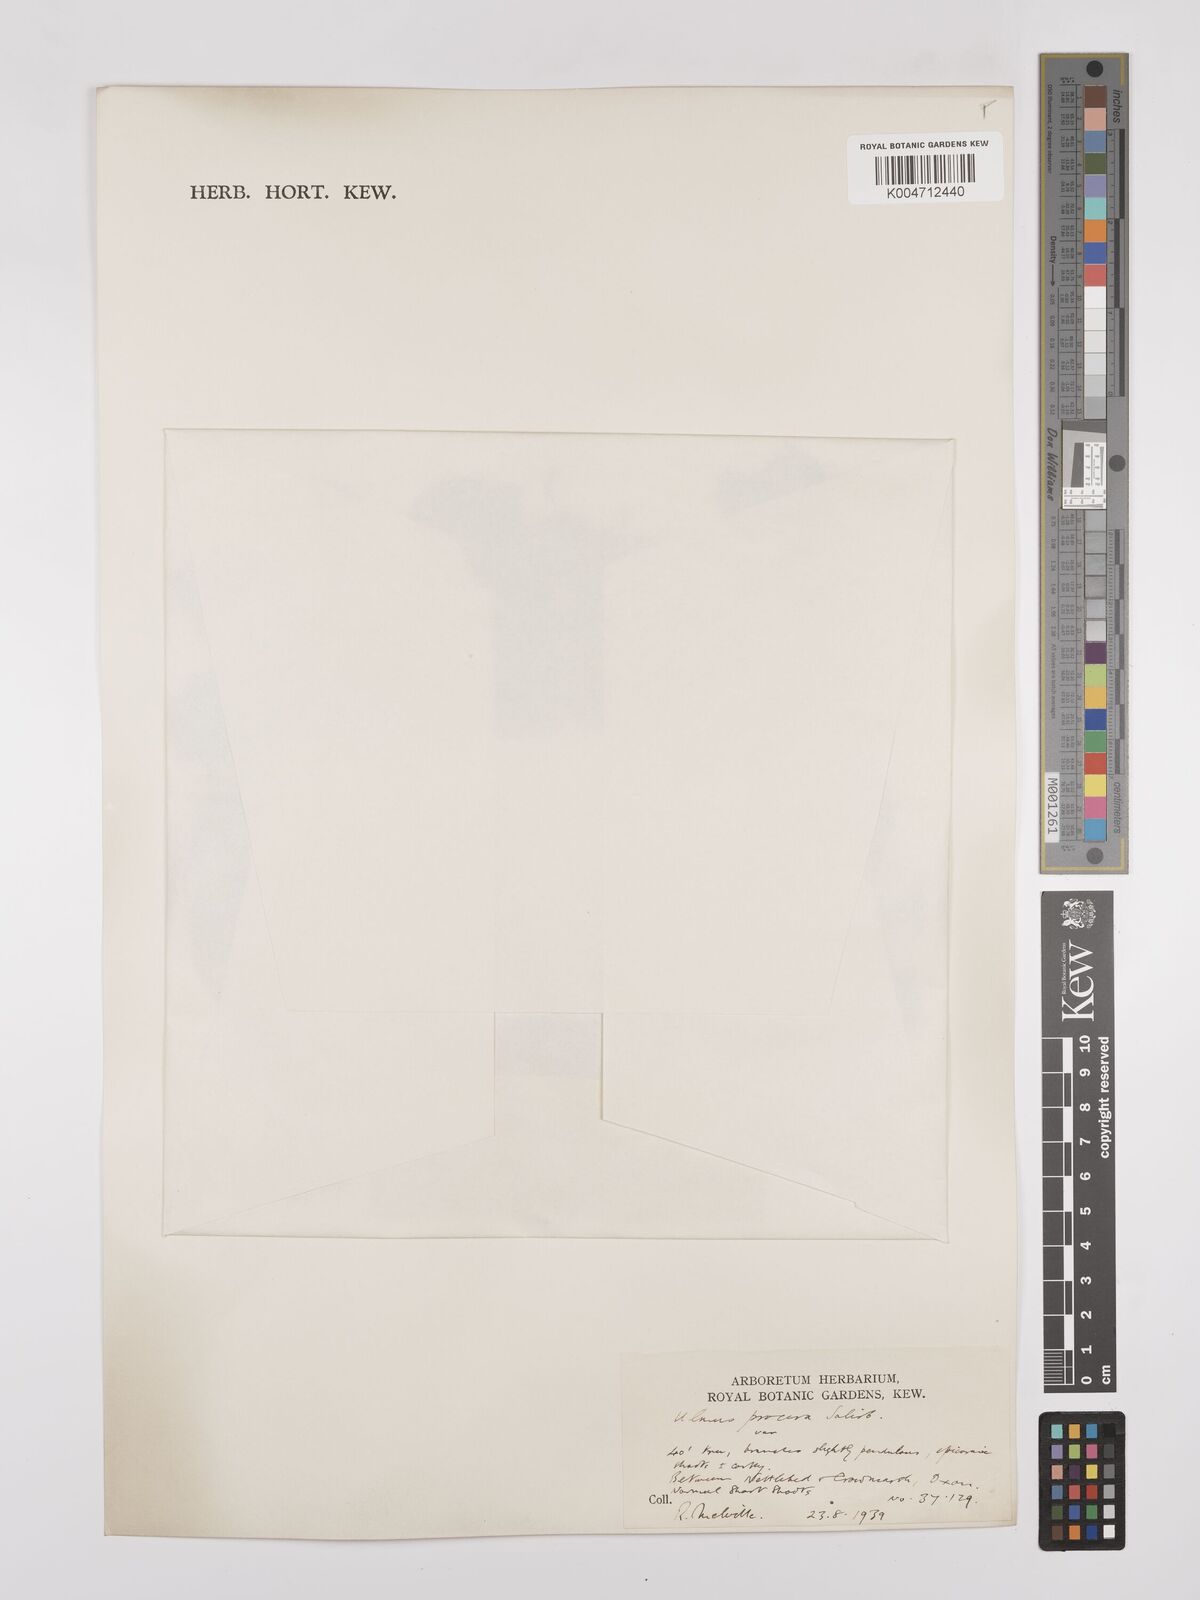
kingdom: Plantae
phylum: Tracheophyta
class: Magnoliopsida
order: Rosales
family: Ulmaceae
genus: Ulmus
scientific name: Ulmus minor
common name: Small-leaved elm
